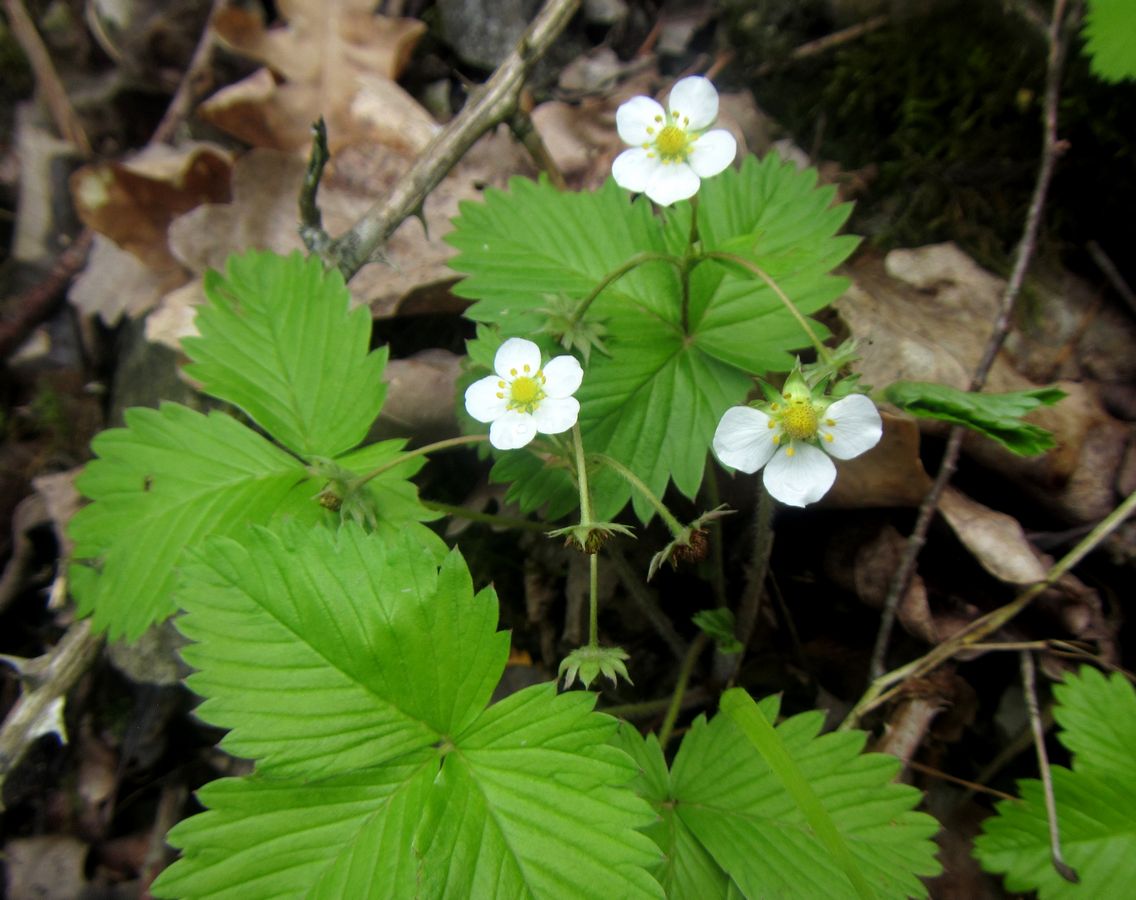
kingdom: Plantae
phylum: Tracheophyta
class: Magnoliopsida
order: Rosales
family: Rosaceae
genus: Fragaria
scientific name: Fragaria viridis
